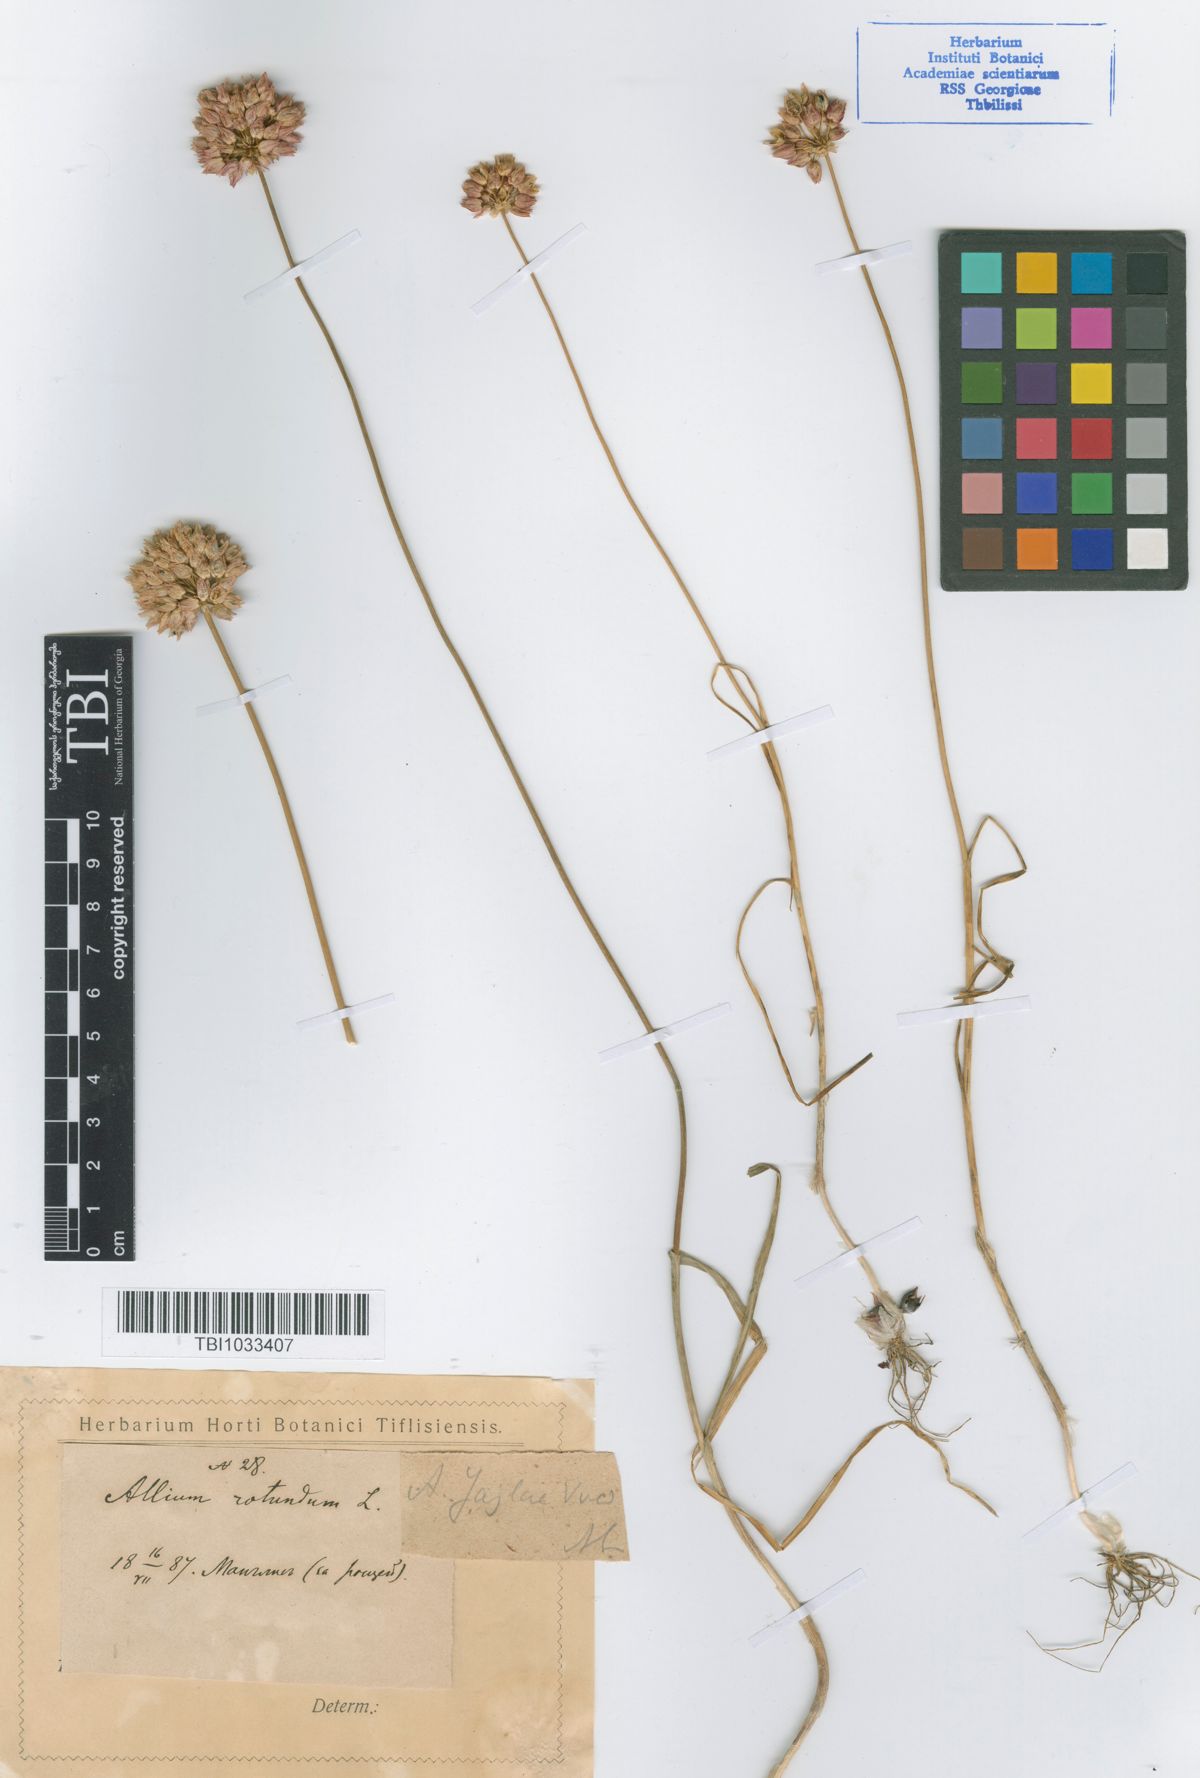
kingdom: Plantae
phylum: Tracheophyta
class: Liliopsida
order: Asparagales
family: Amaryllidaceae
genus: Allium
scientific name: Allium rotundum
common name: Sand leek
